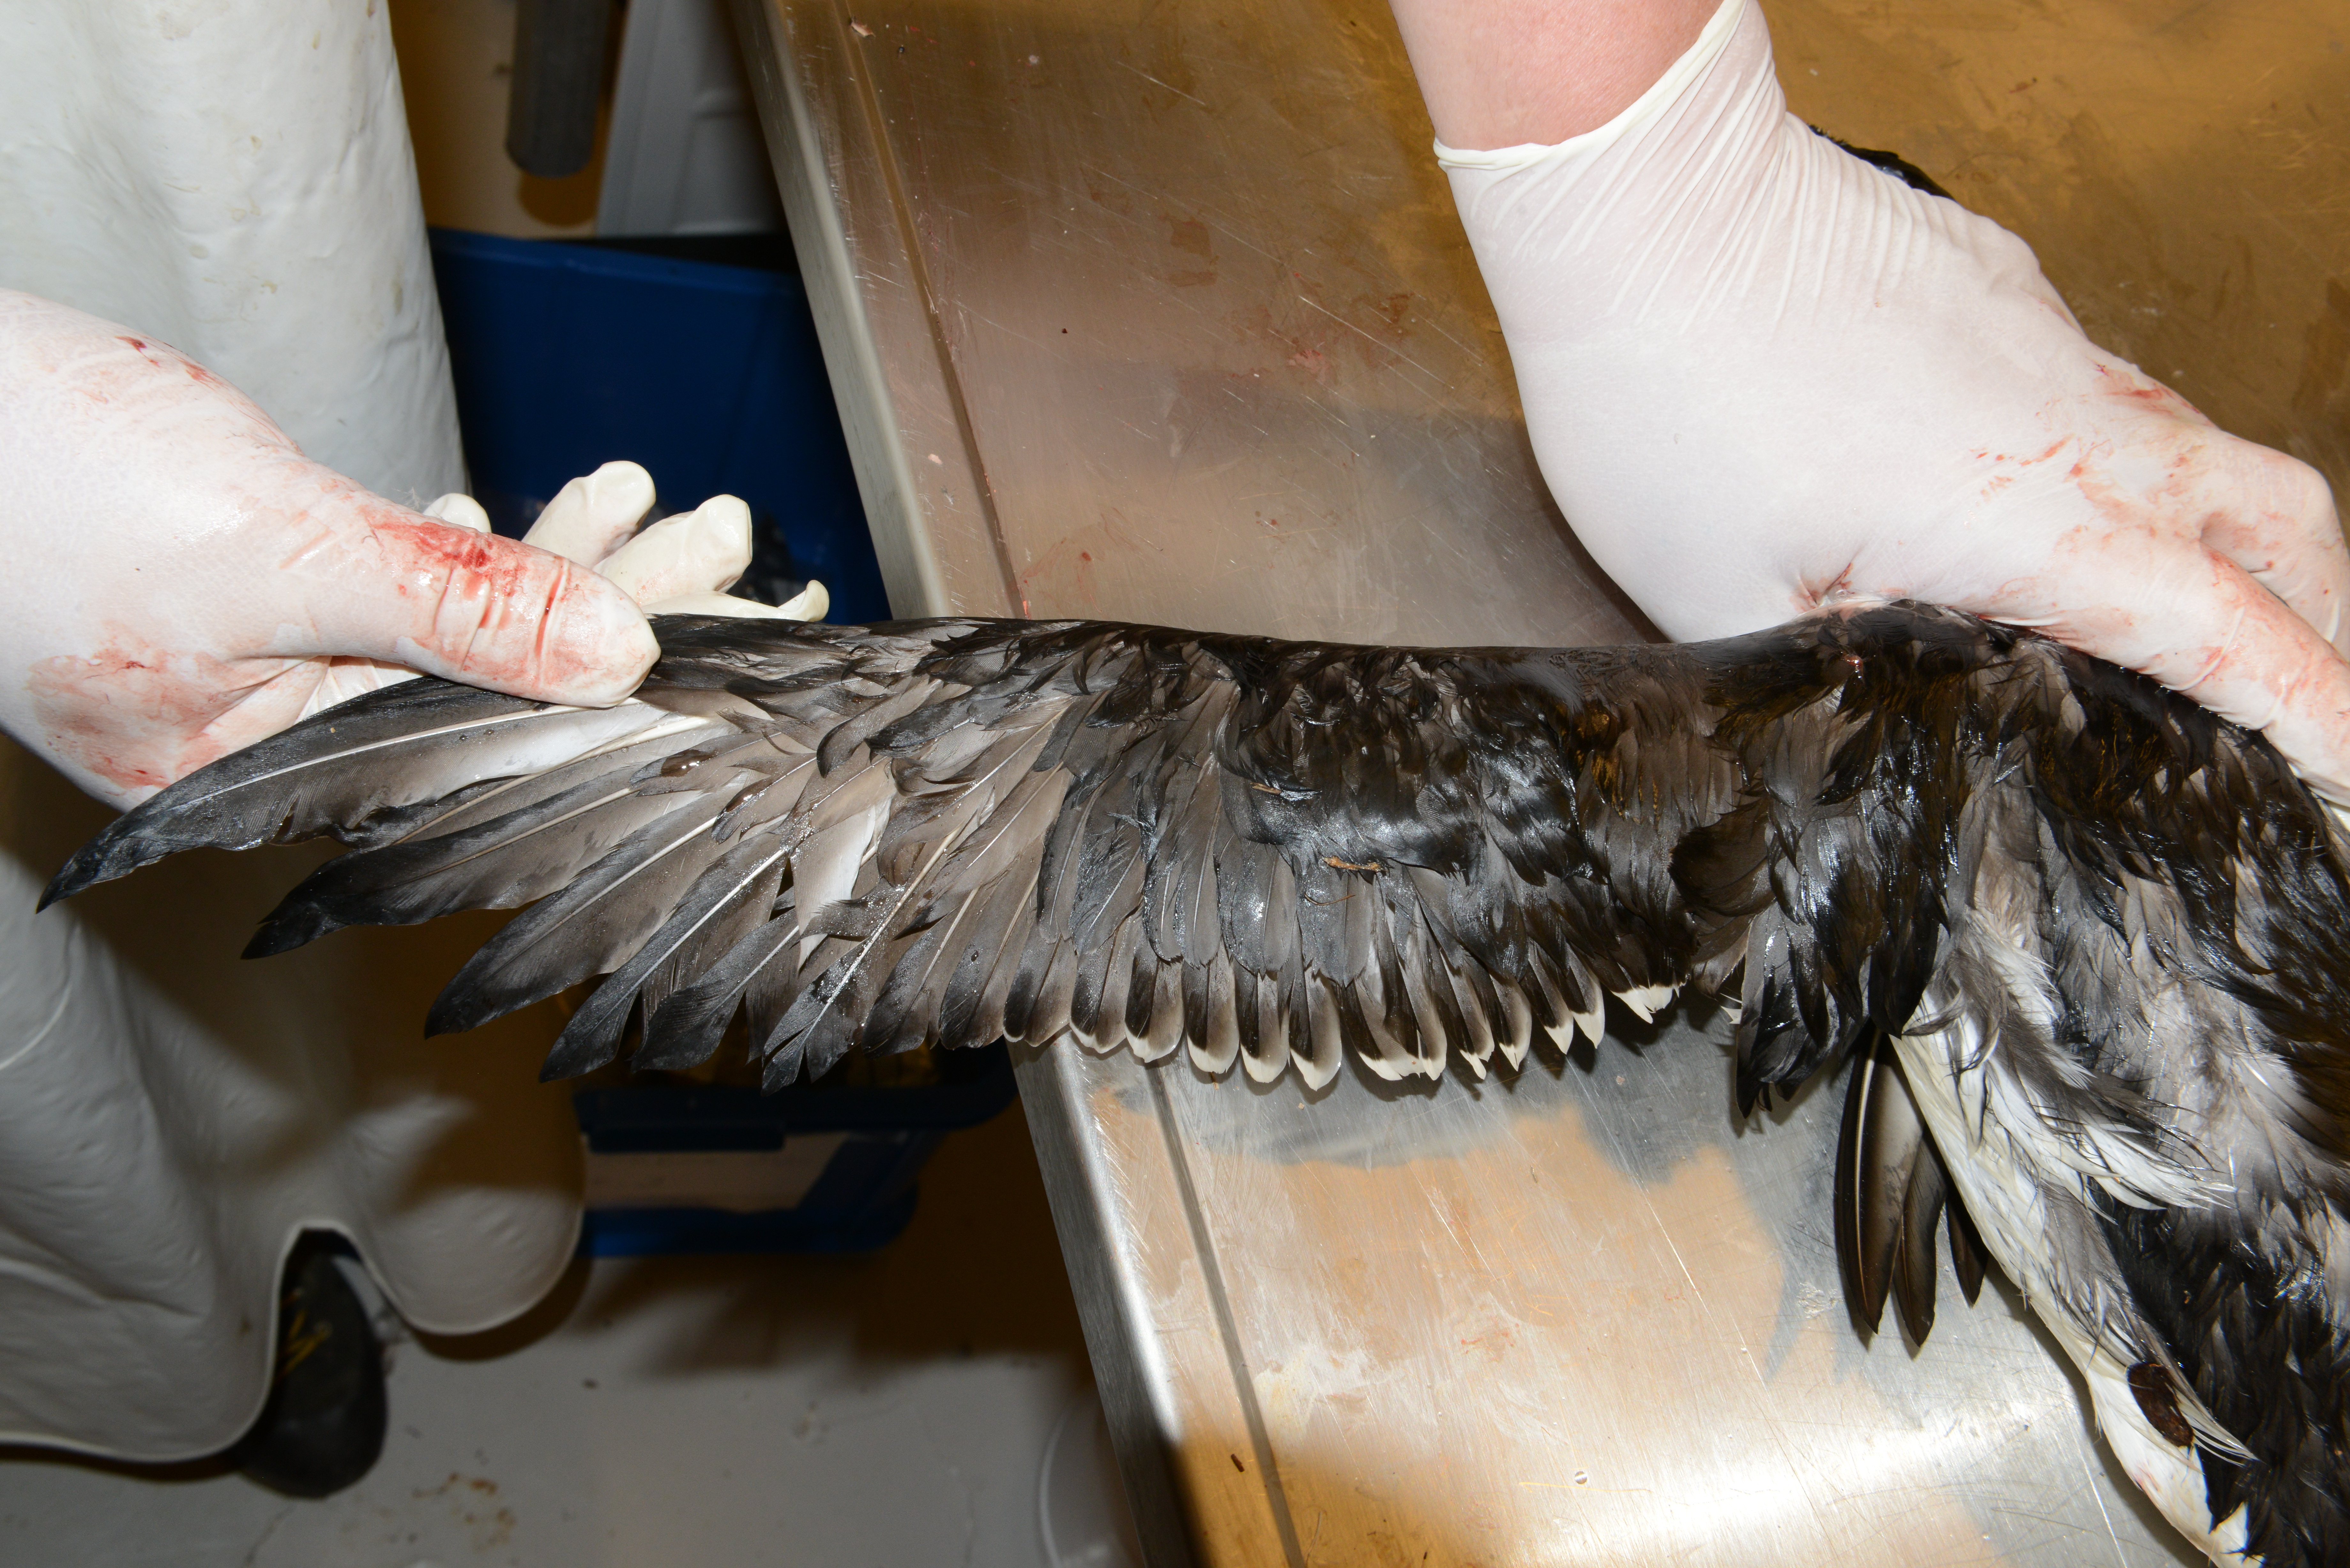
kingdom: Animalia
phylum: Chordata
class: Aves
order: Charadriiformes
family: Alcidae
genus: Uria
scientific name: Uria aalge
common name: Common murre
